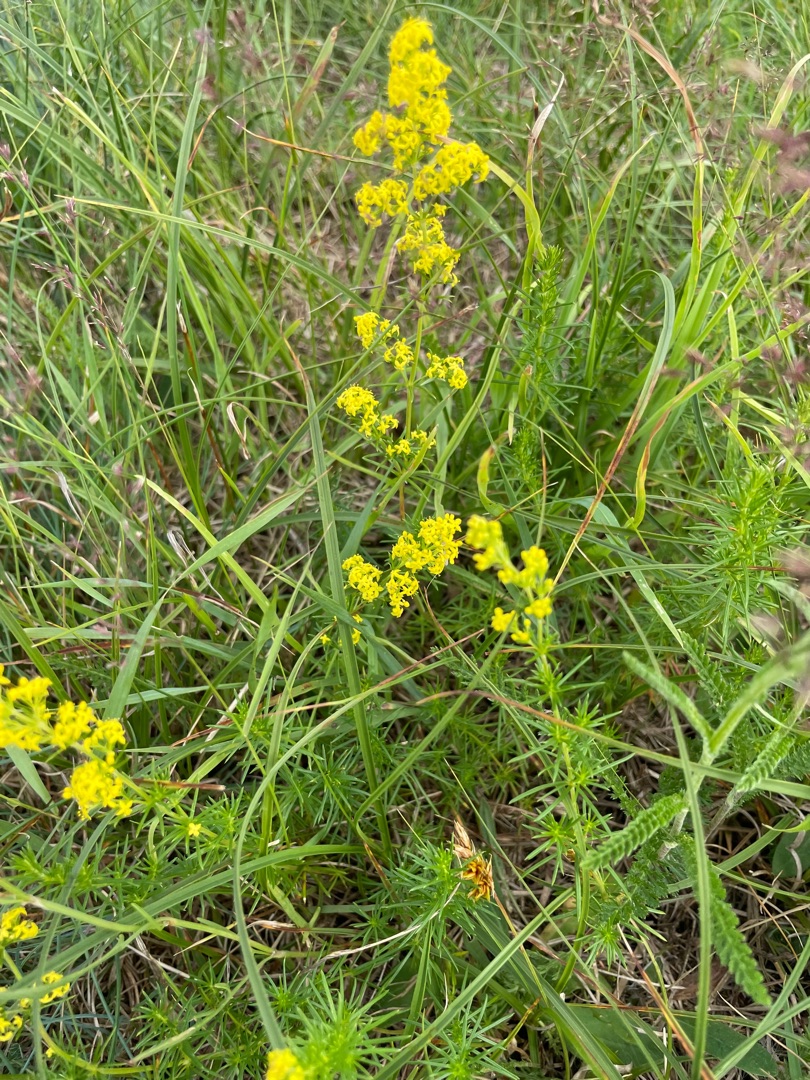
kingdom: Plantae
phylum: Tracheophyta
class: Magnoliopsida
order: Gentianales
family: Rubiaceae
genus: Galium
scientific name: Galium verum
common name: Gul snerre
